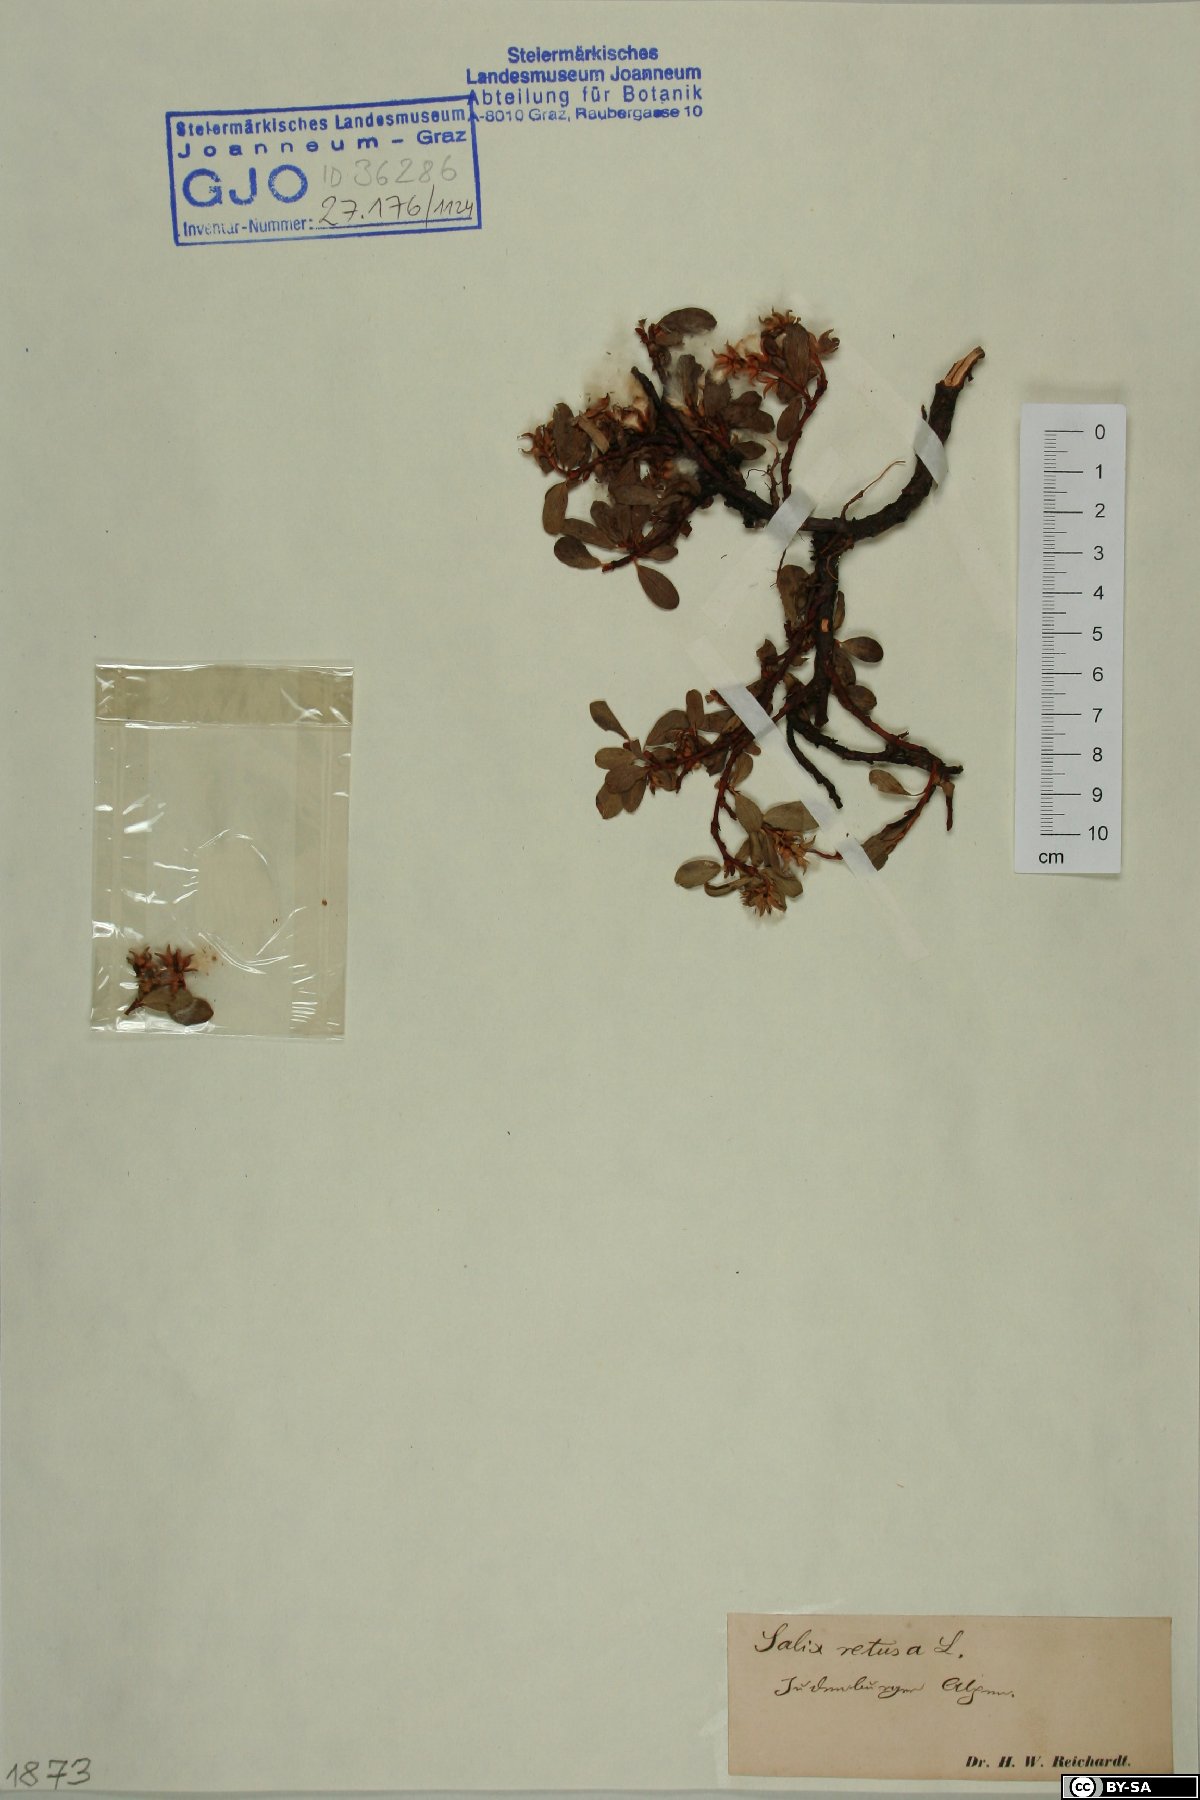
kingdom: Plantae
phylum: Tracheophyta
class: Magnoliopsida
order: Malpighiales
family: Salicaceae
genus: Salix
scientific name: Salix retusa
